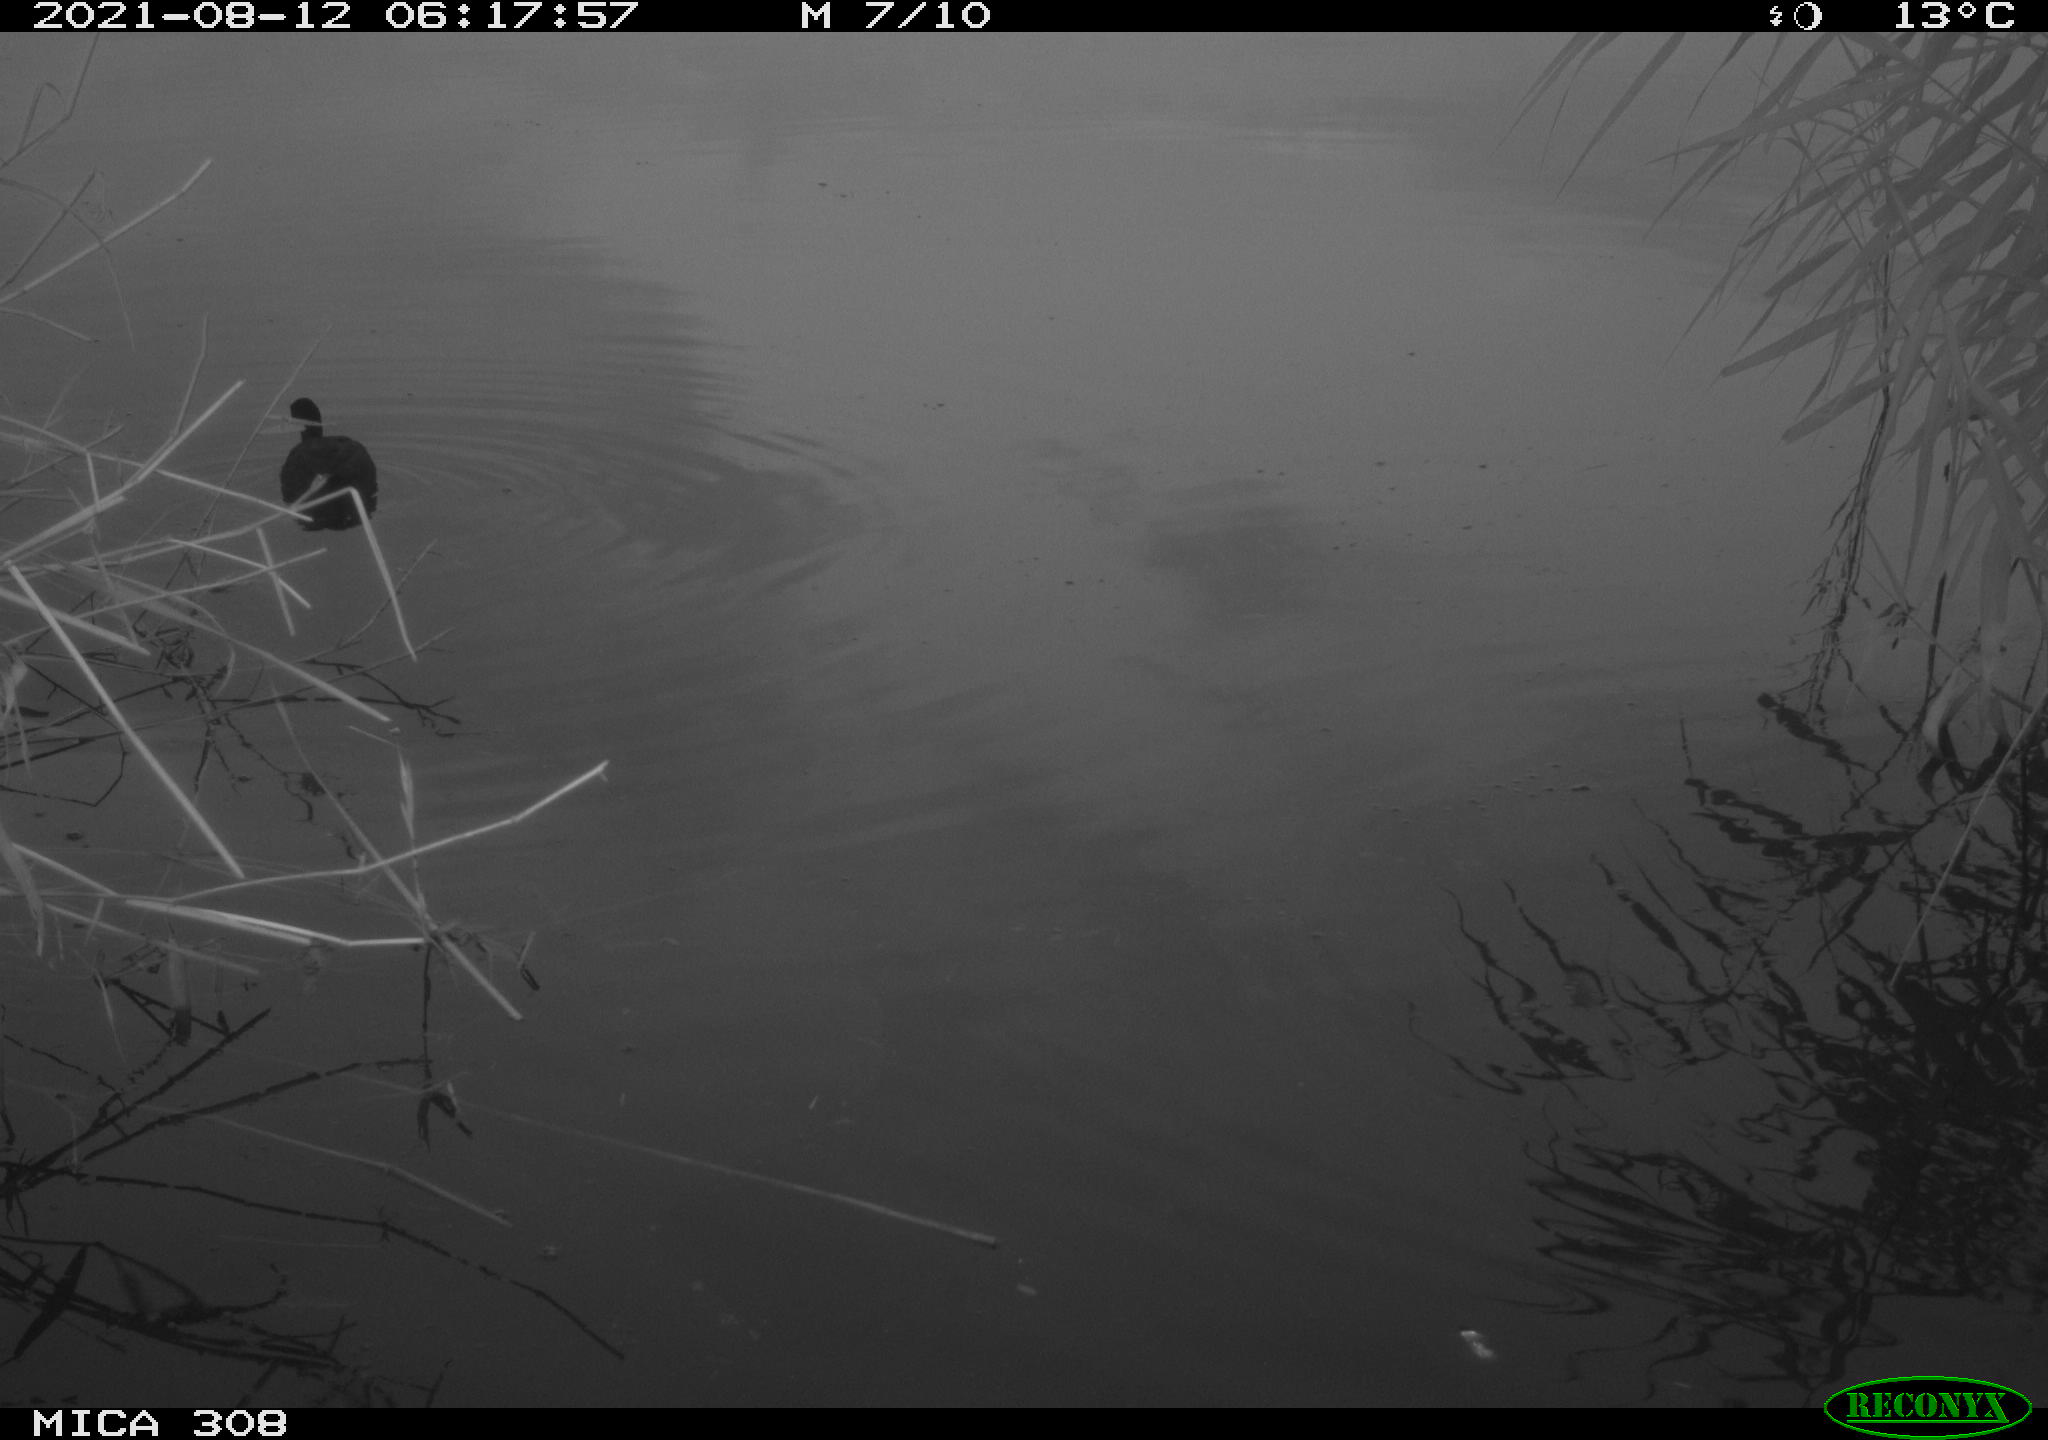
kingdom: Animalia
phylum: Chordata
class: Aves
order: Gruiformes
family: Rallidae
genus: Fulica
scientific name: Fulica atra
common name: Eurasian coot
